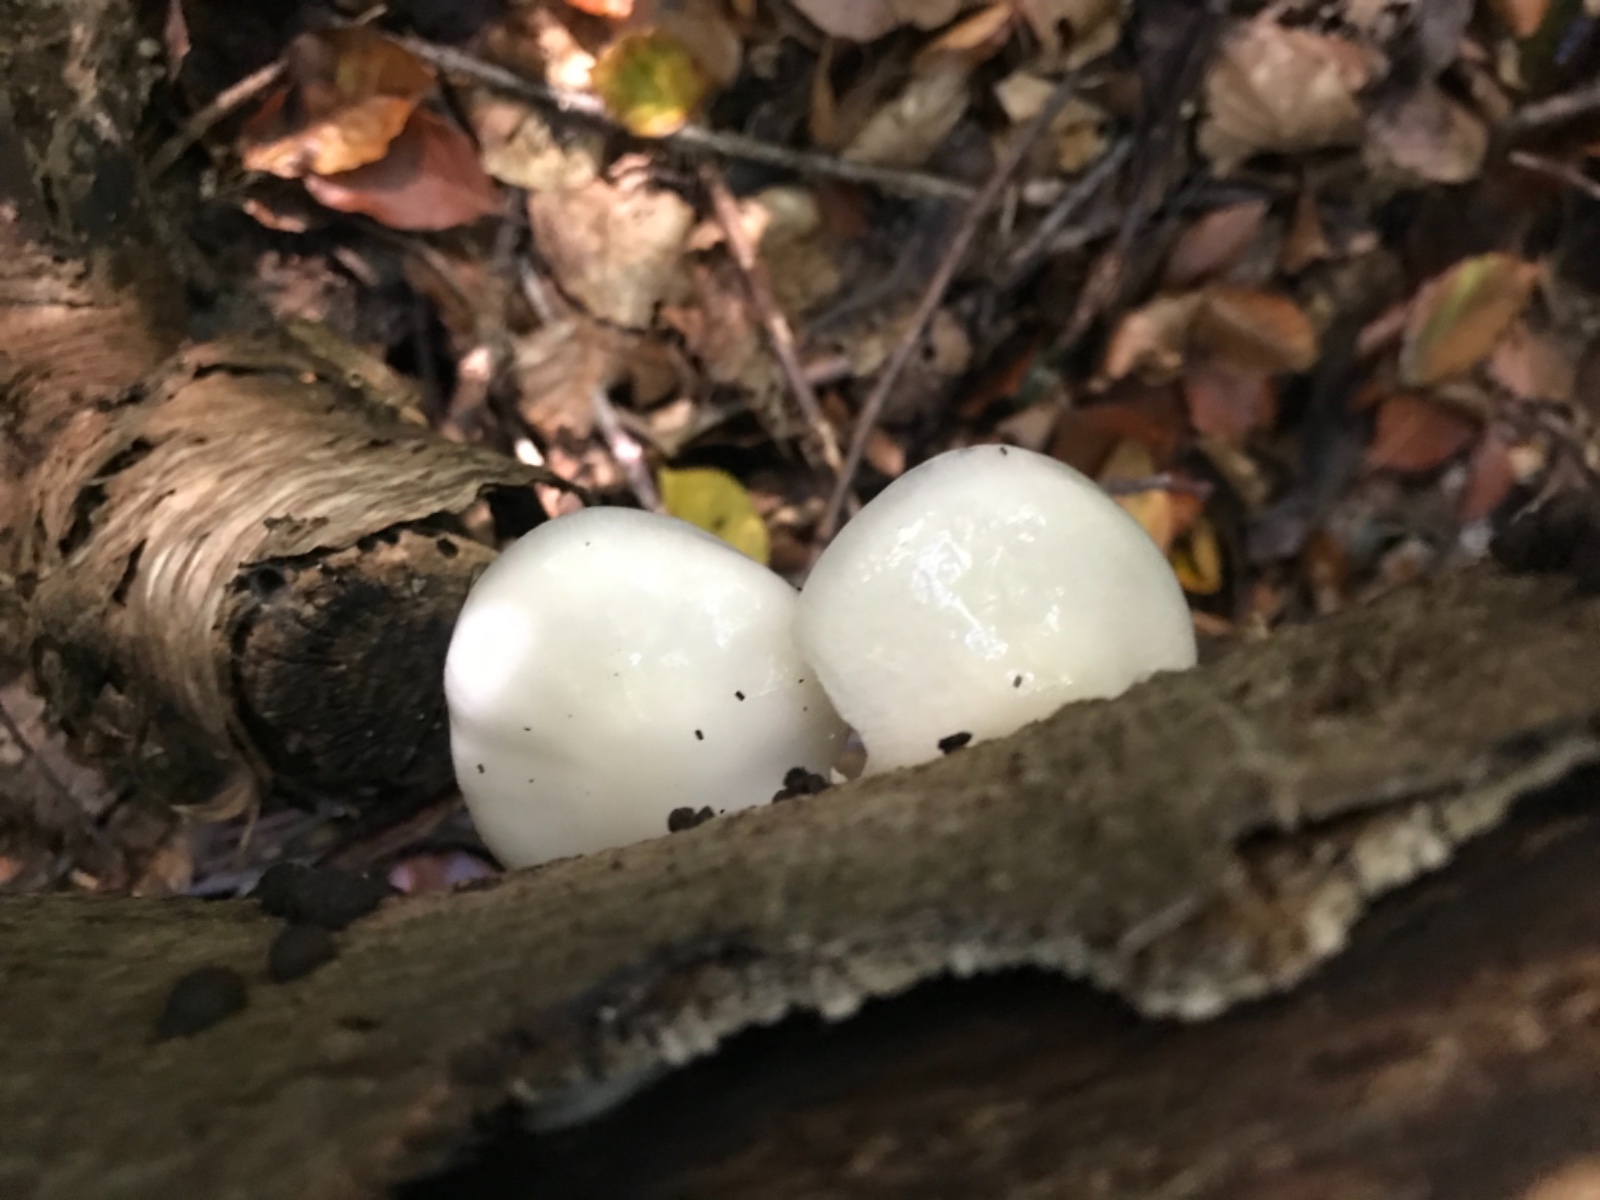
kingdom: Fungi
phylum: Basidiomycota
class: Agaricomycetes
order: Agaricales
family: Physalacriaceae
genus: Mucidula
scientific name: Mucidula mucida
